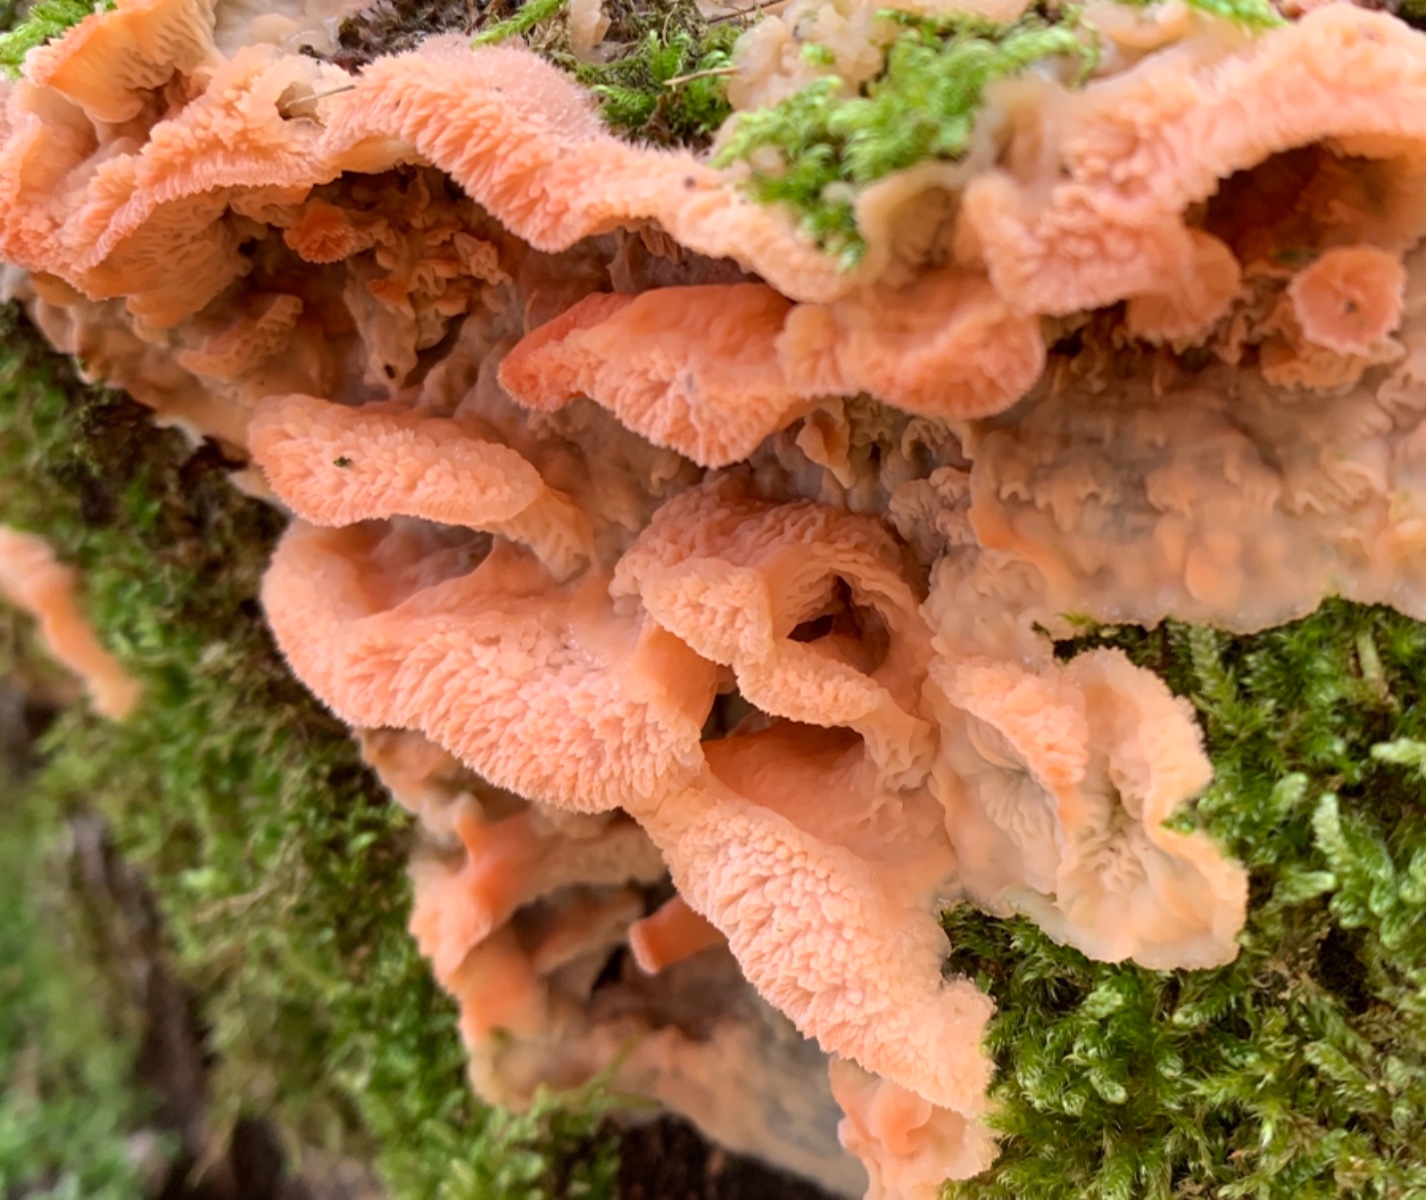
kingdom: Fungi
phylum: Basidiomycota
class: Agaricomycetes
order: Polyporales
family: Meruliaceae
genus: Phlebia
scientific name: Phlebia tremellosa
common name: bævrende åresvamp
